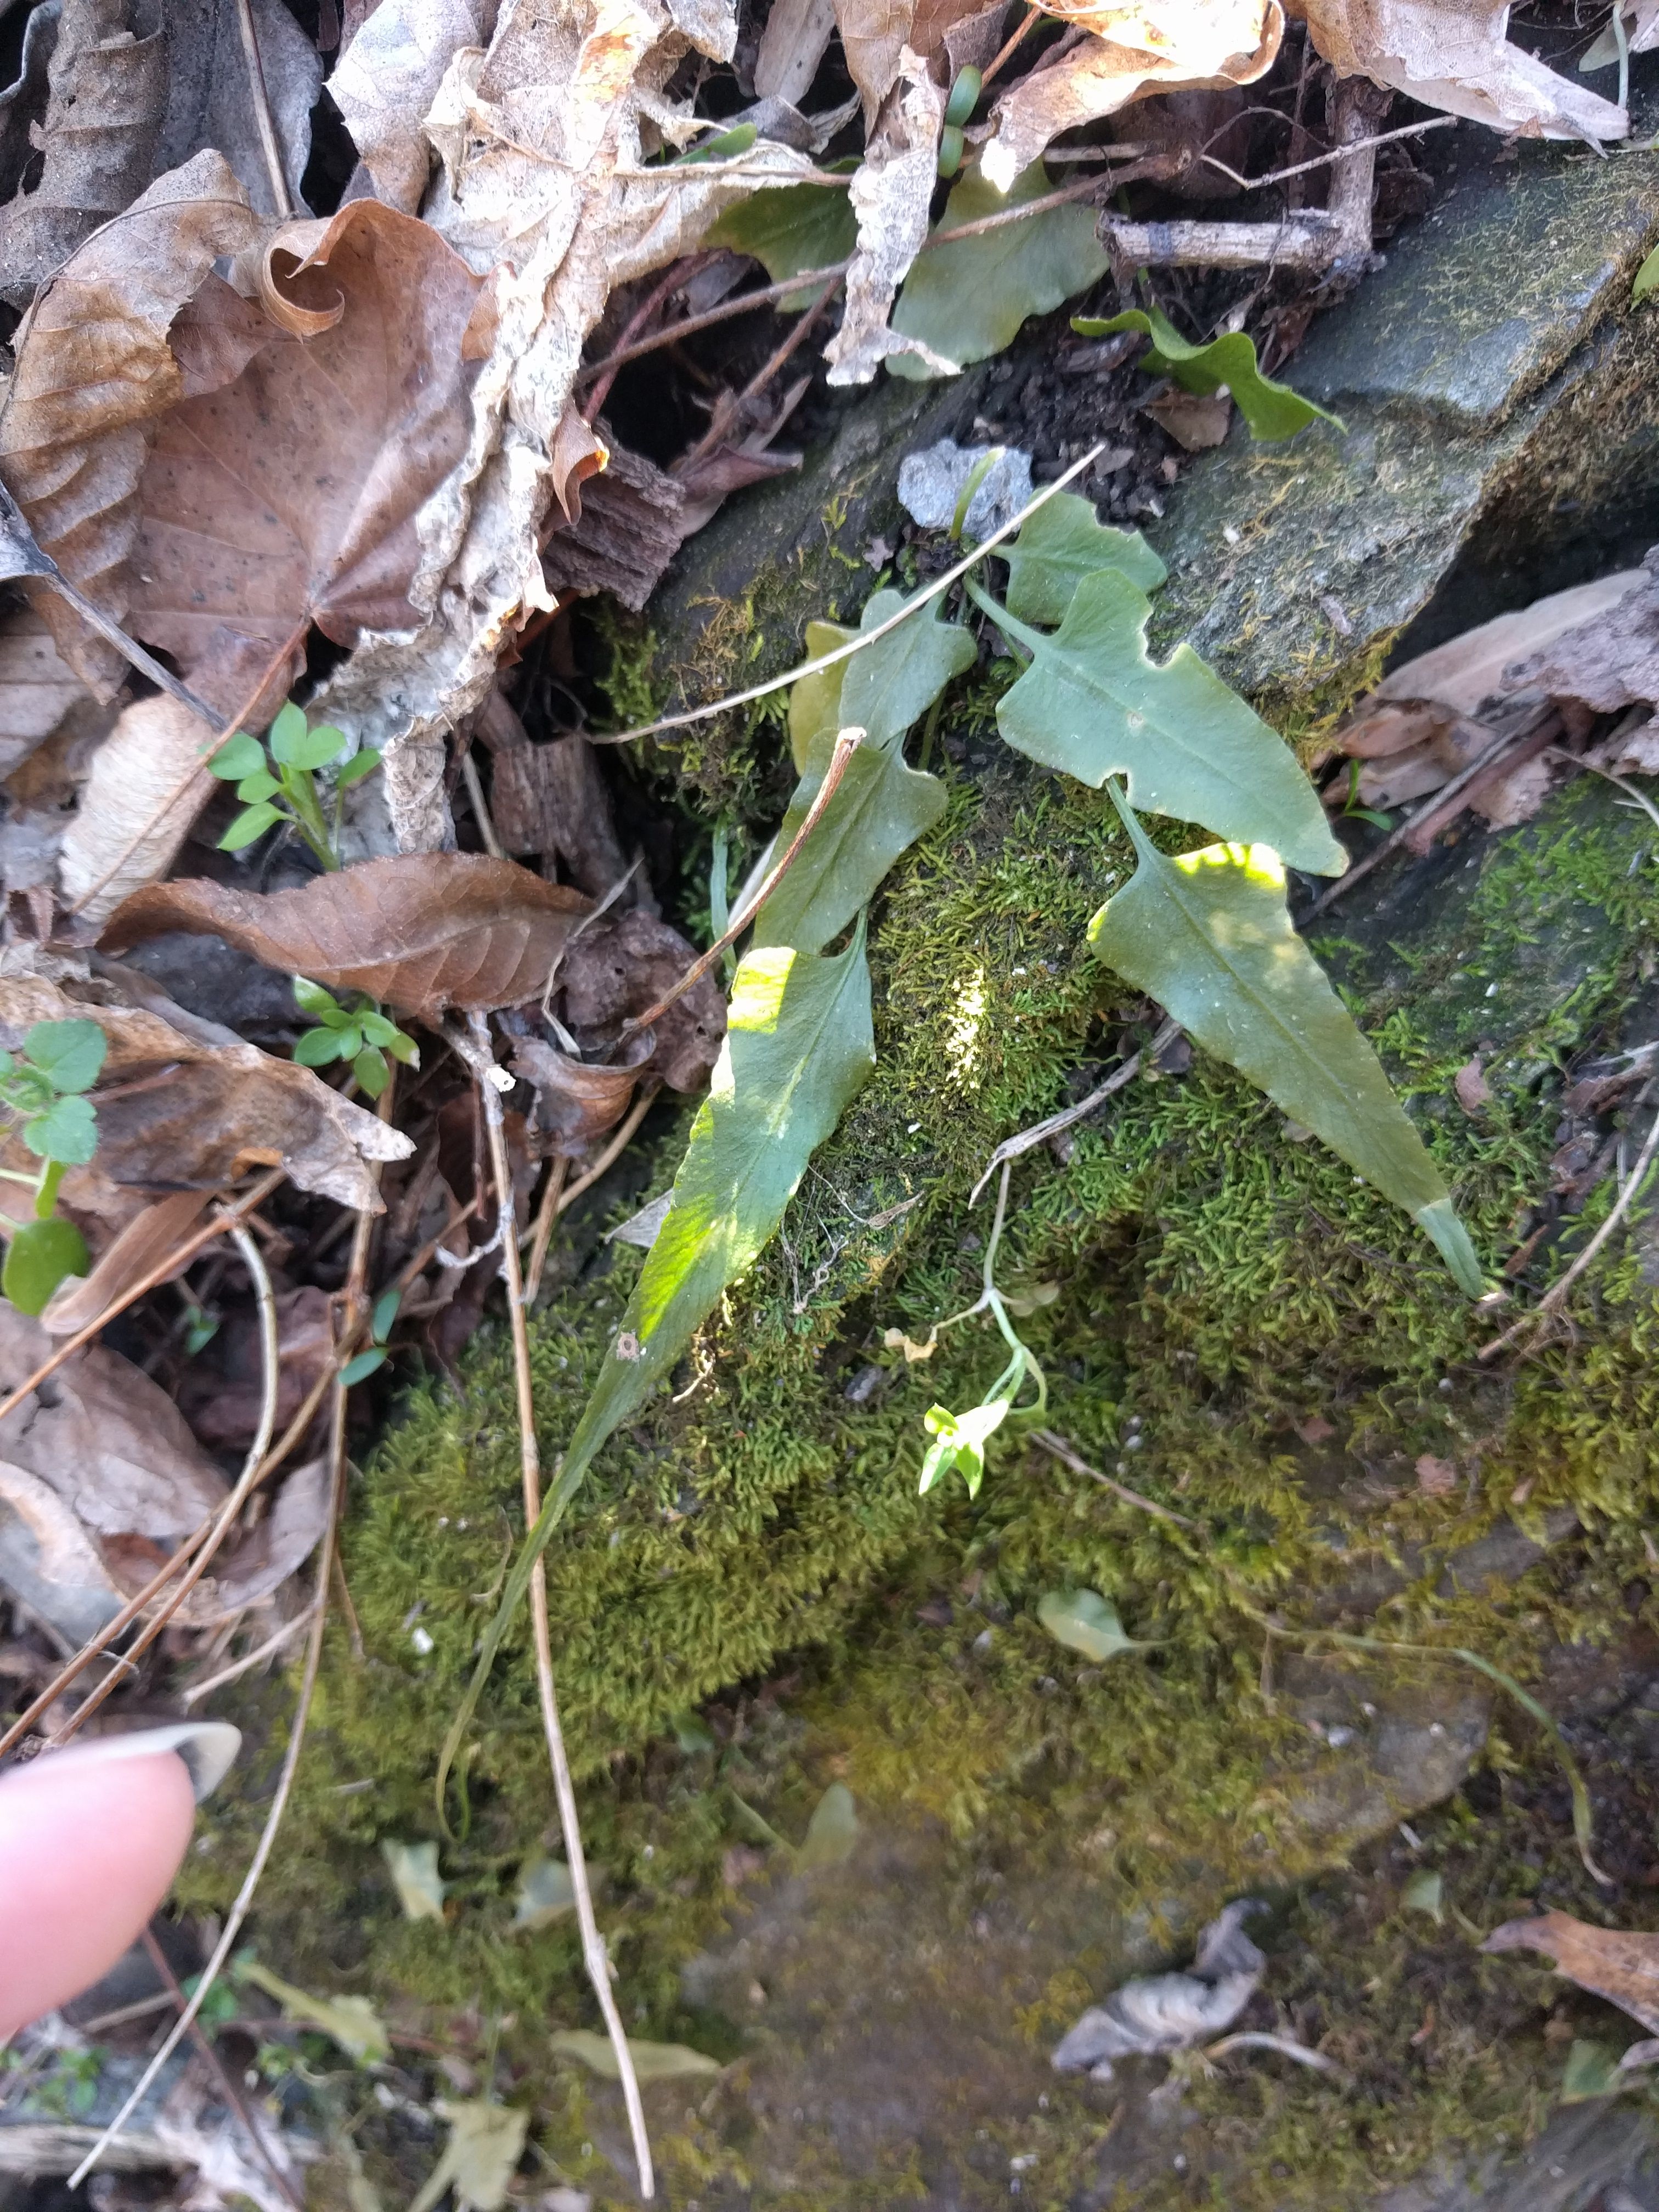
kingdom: Plantae
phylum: Tracheophyta
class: Polypodiopsida
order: Polypodiales
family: Aspleniaceae
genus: Asplenium
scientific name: Asplenium rhizophyllum
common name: Walking fern
